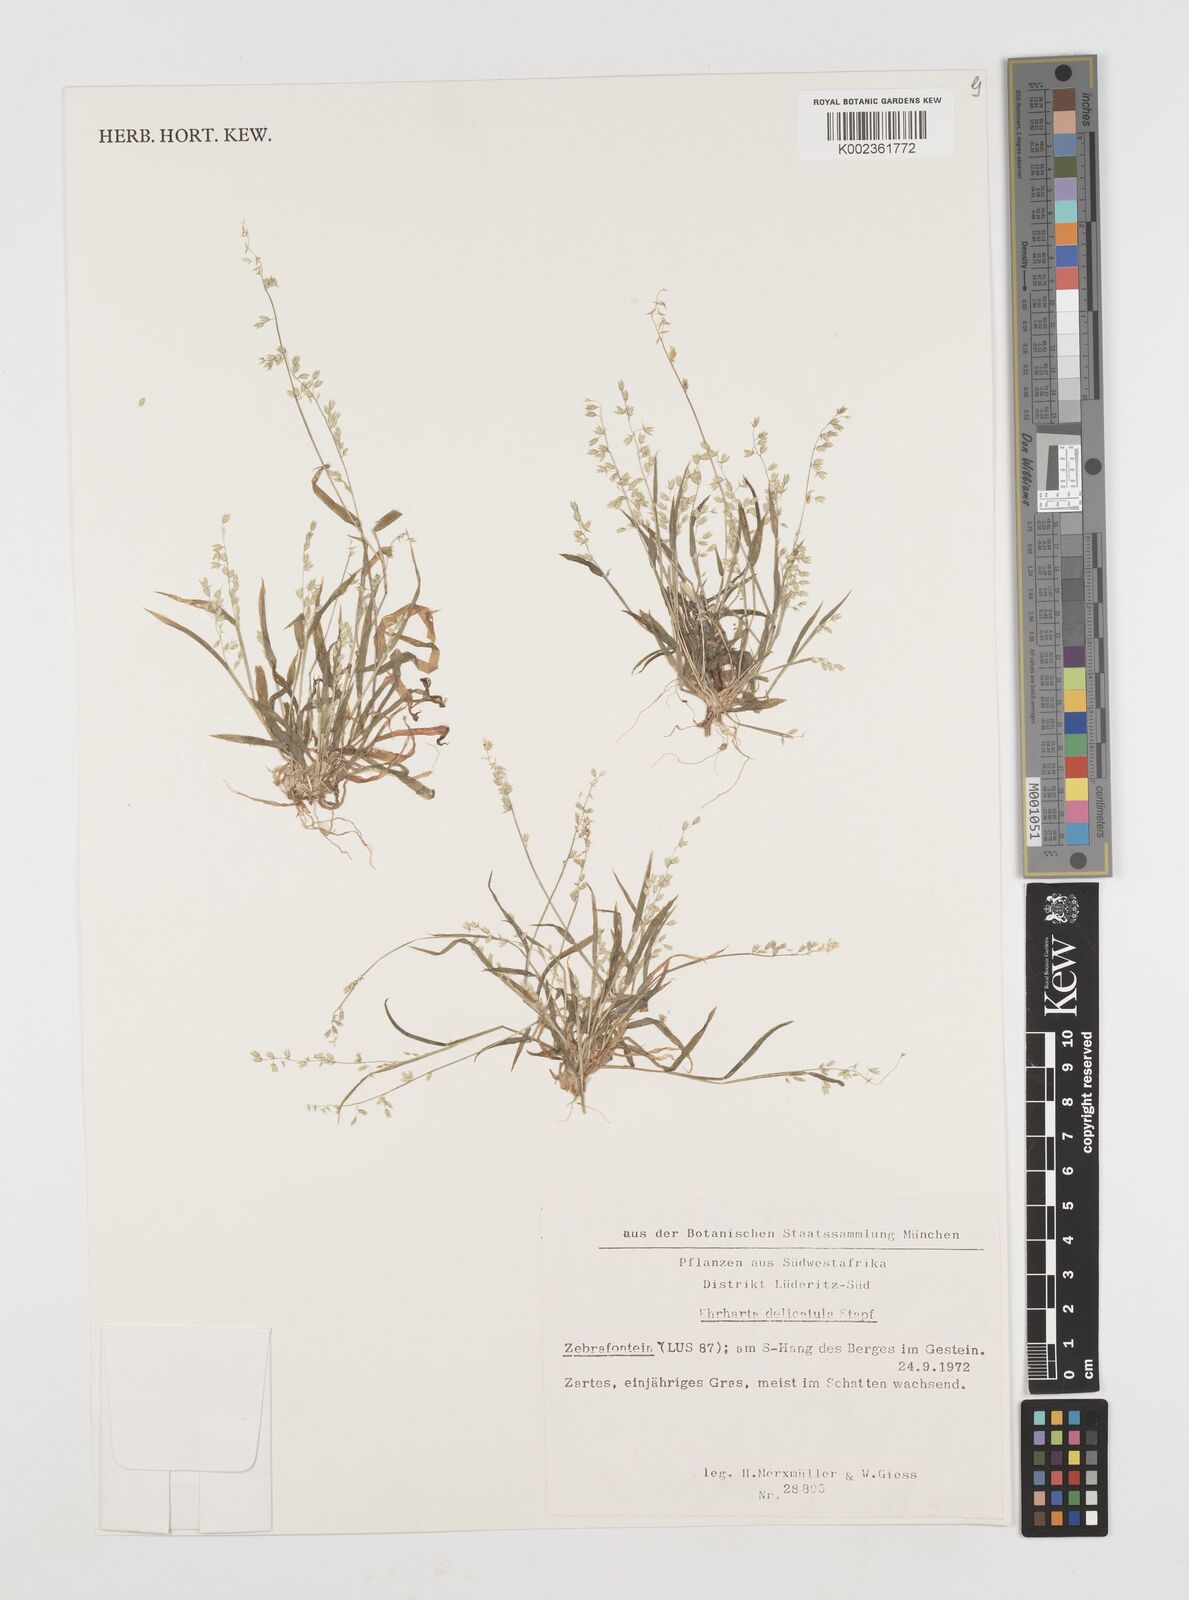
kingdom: Plantae
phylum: Tracheophyta
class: Liliopsida
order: Poales
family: Poaceae
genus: Ehrharta
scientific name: Ehrharta delicatula
